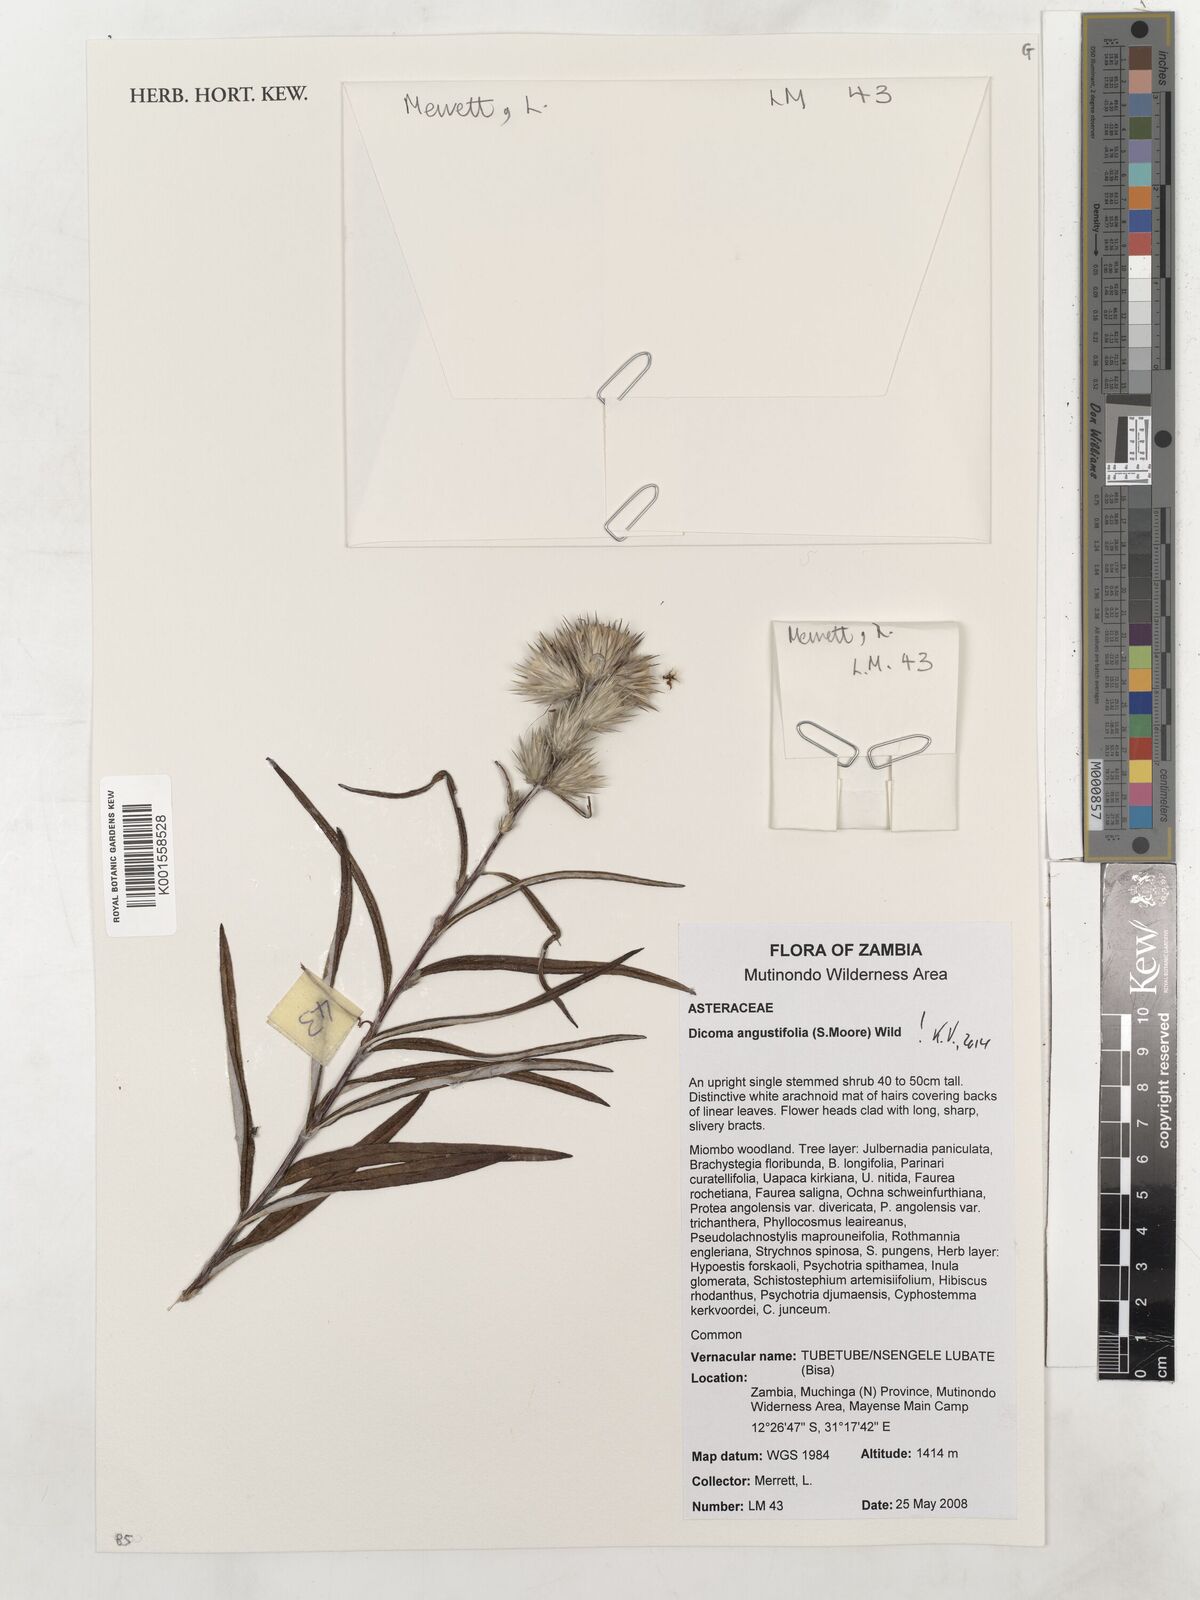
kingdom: Plantae
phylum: Tracheophyta
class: Magnoliopsida
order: Asterales
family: Asteraceae
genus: Macledium
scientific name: Macledium poggei
